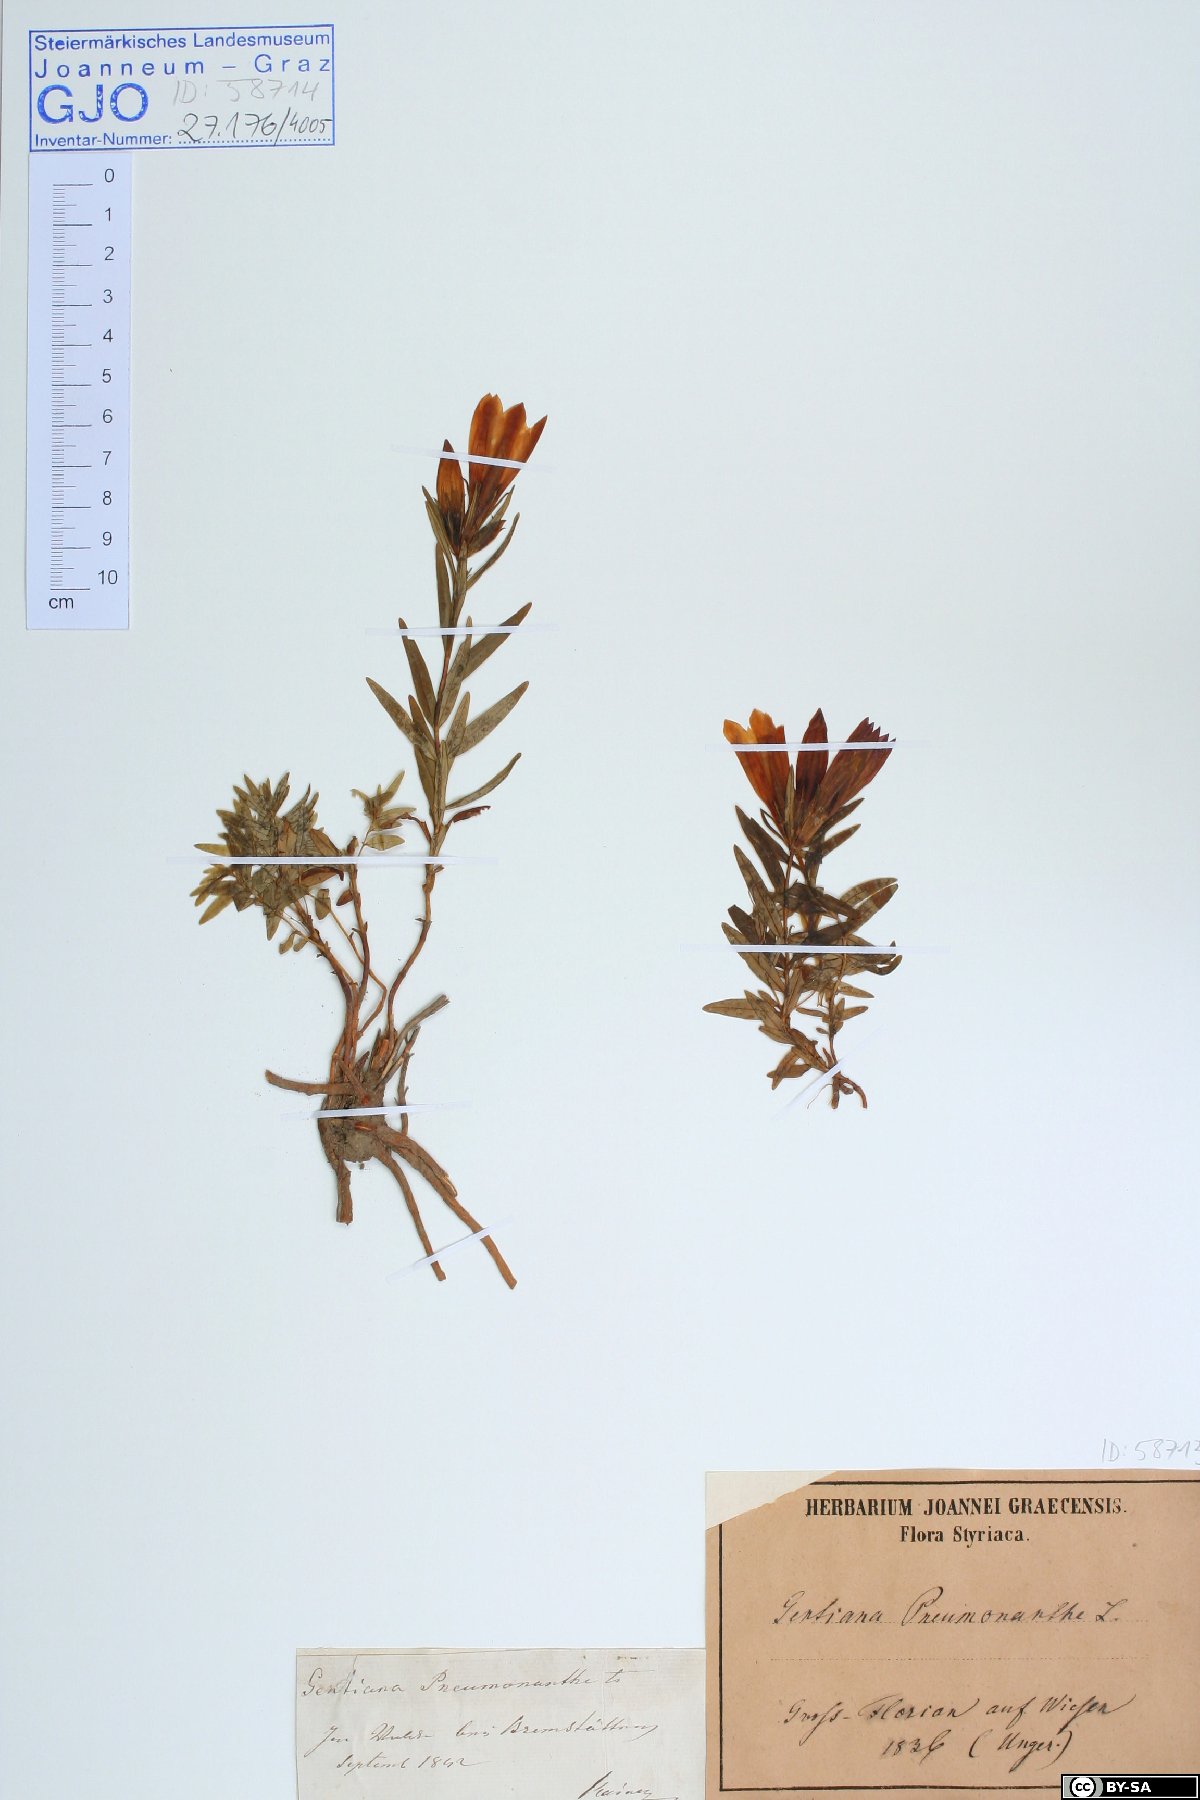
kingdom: Plantae
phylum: Tracheophyta
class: Magnoliopsida
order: Gentianales
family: Gentianaceae
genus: Gentiana
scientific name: Gentiana pneumonanthe
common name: Marsh gentian
